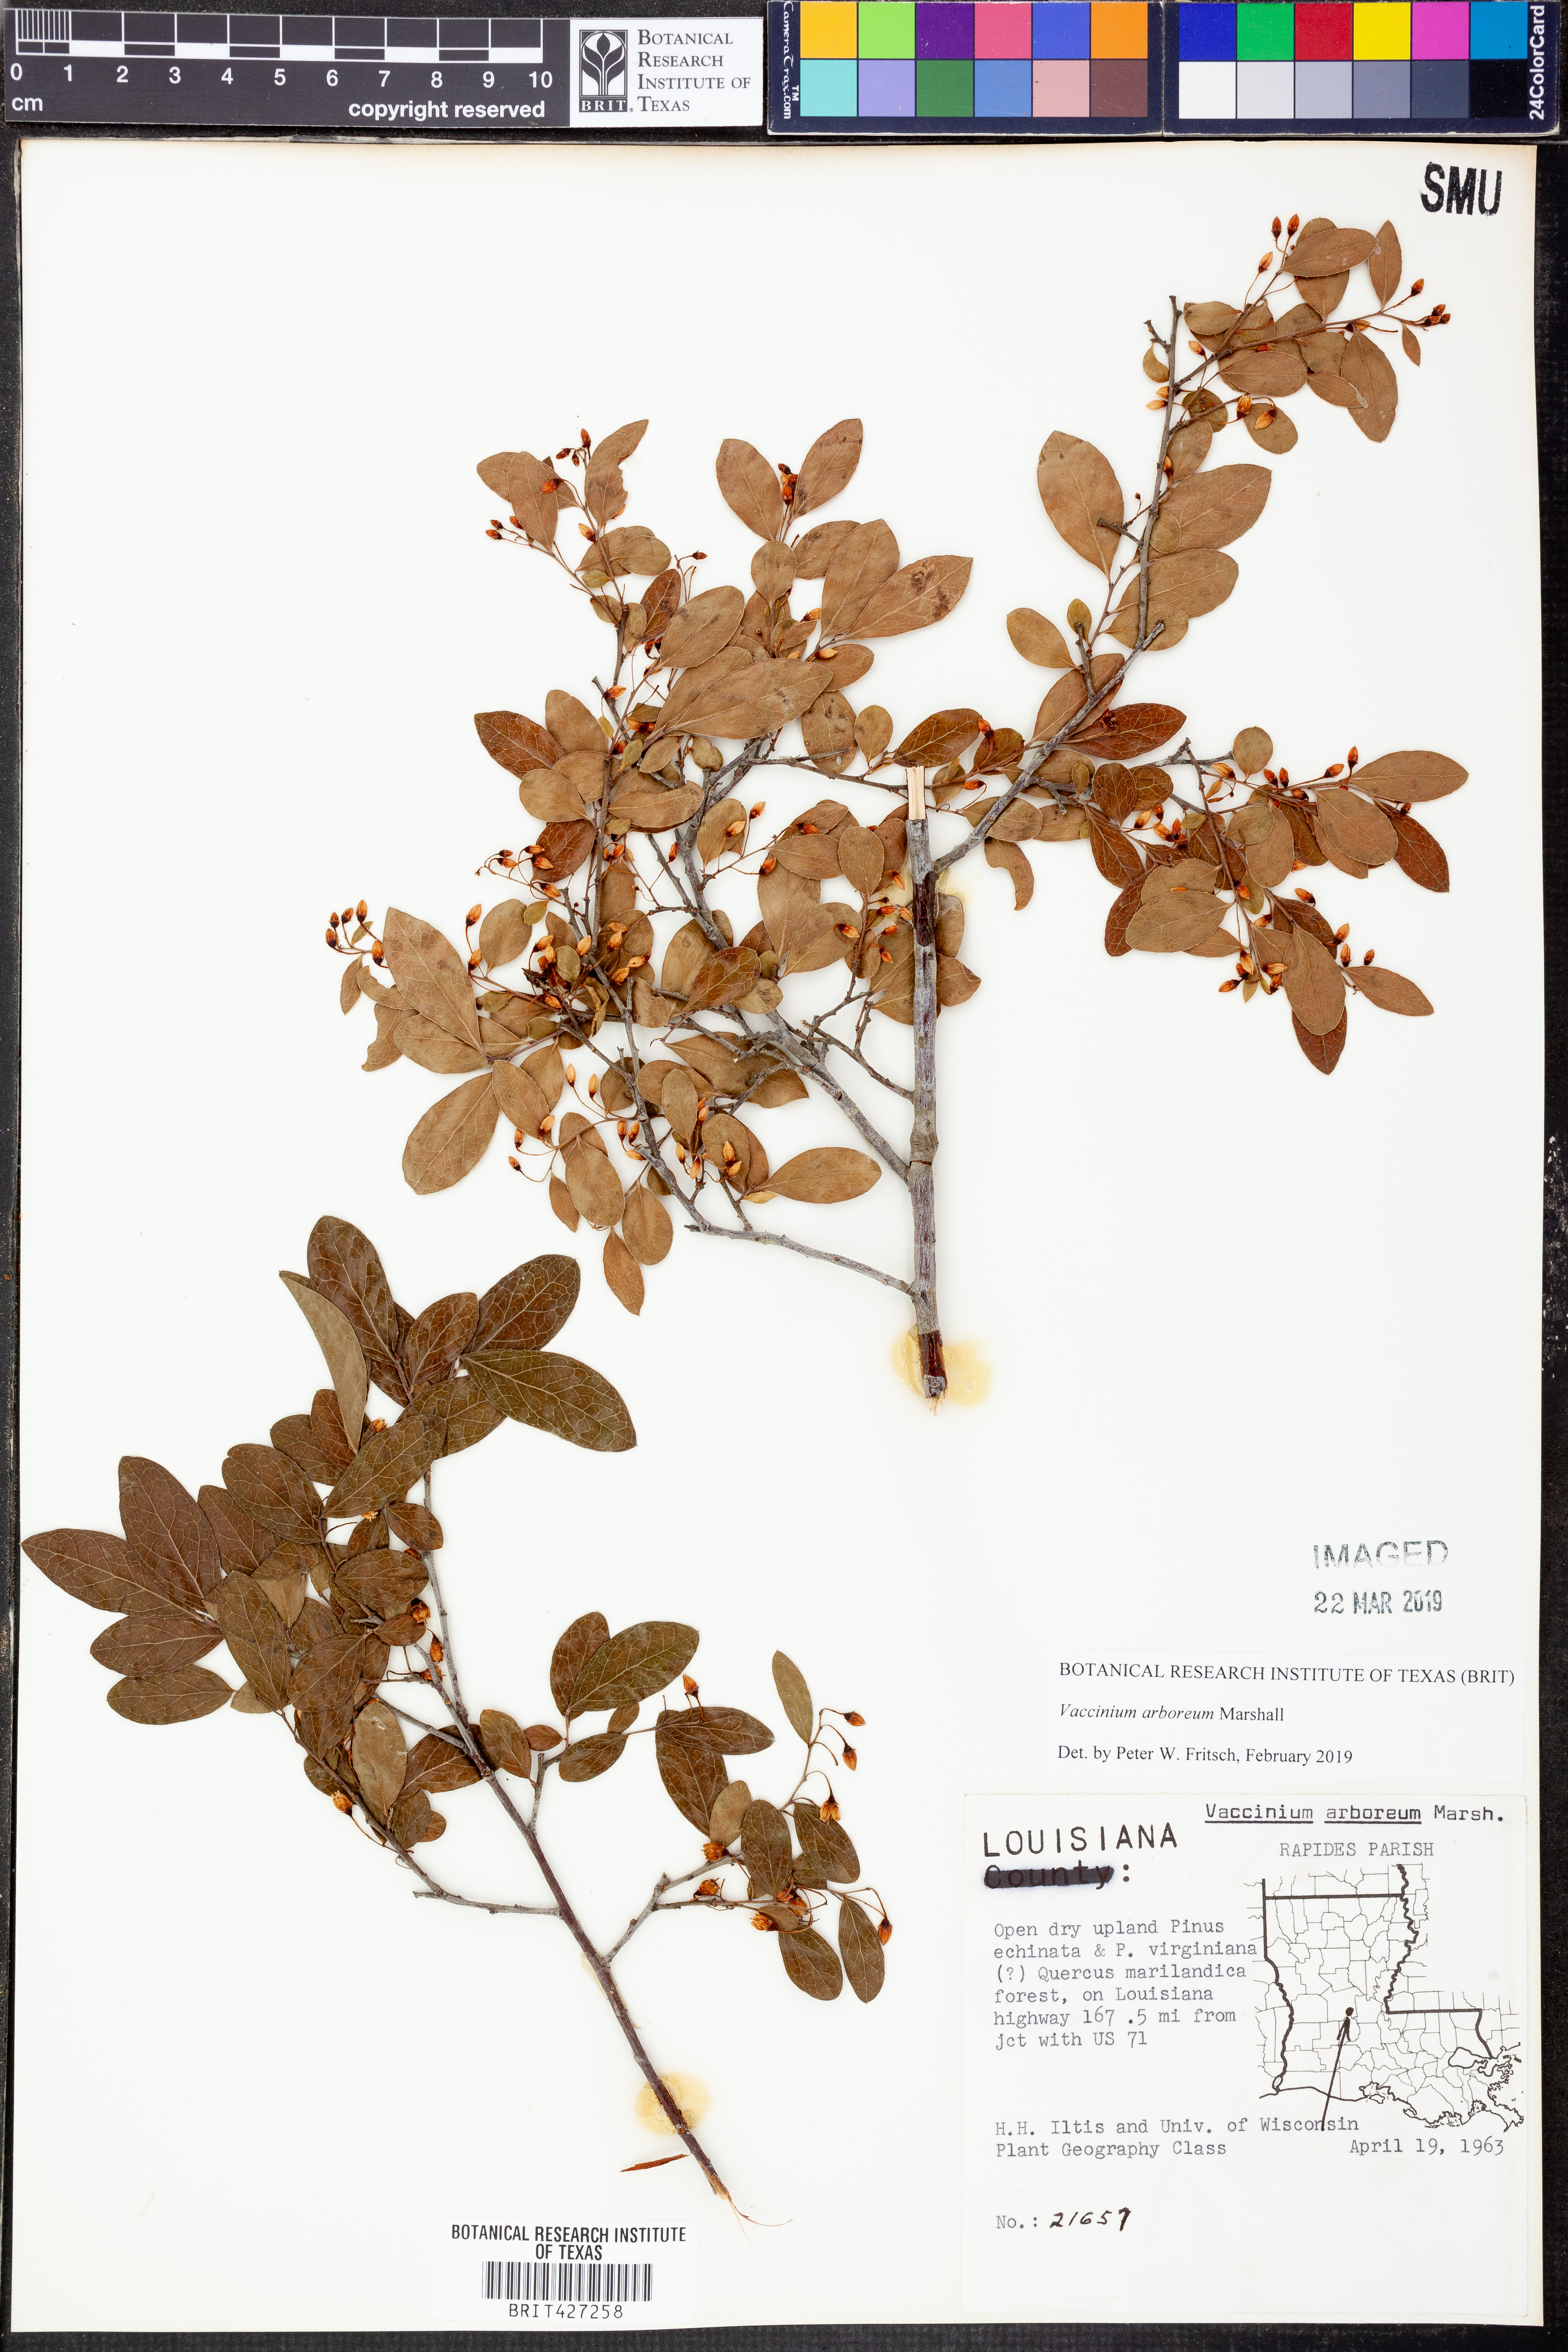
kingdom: Plantae
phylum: Tracheophyta
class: Magnoliopsida
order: Ericales
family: Ericaceae
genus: Vaccinium
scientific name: Vaccinium arboreum
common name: Farkleberry
